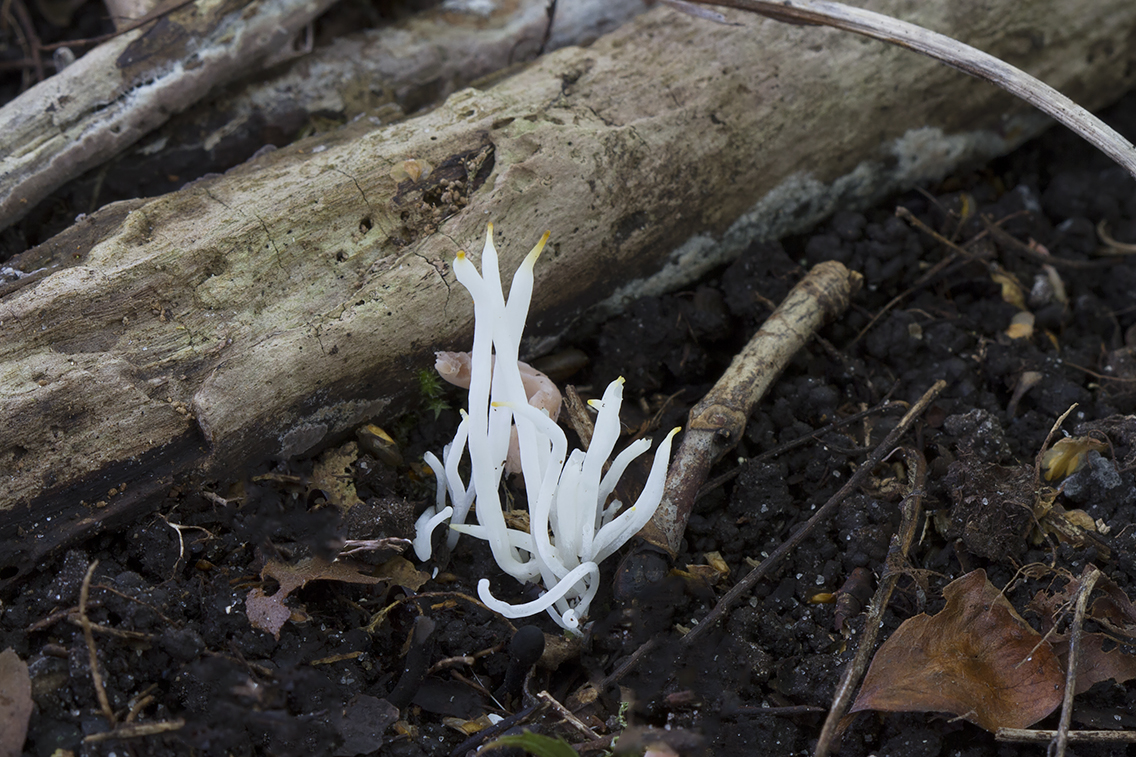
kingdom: Fungi
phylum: Basidiomycota
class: Agaricomycetes
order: Agaricales
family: Clavariaceae
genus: Clavaria
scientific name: Clavaria fragilis
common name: bugtet køllesvamp
